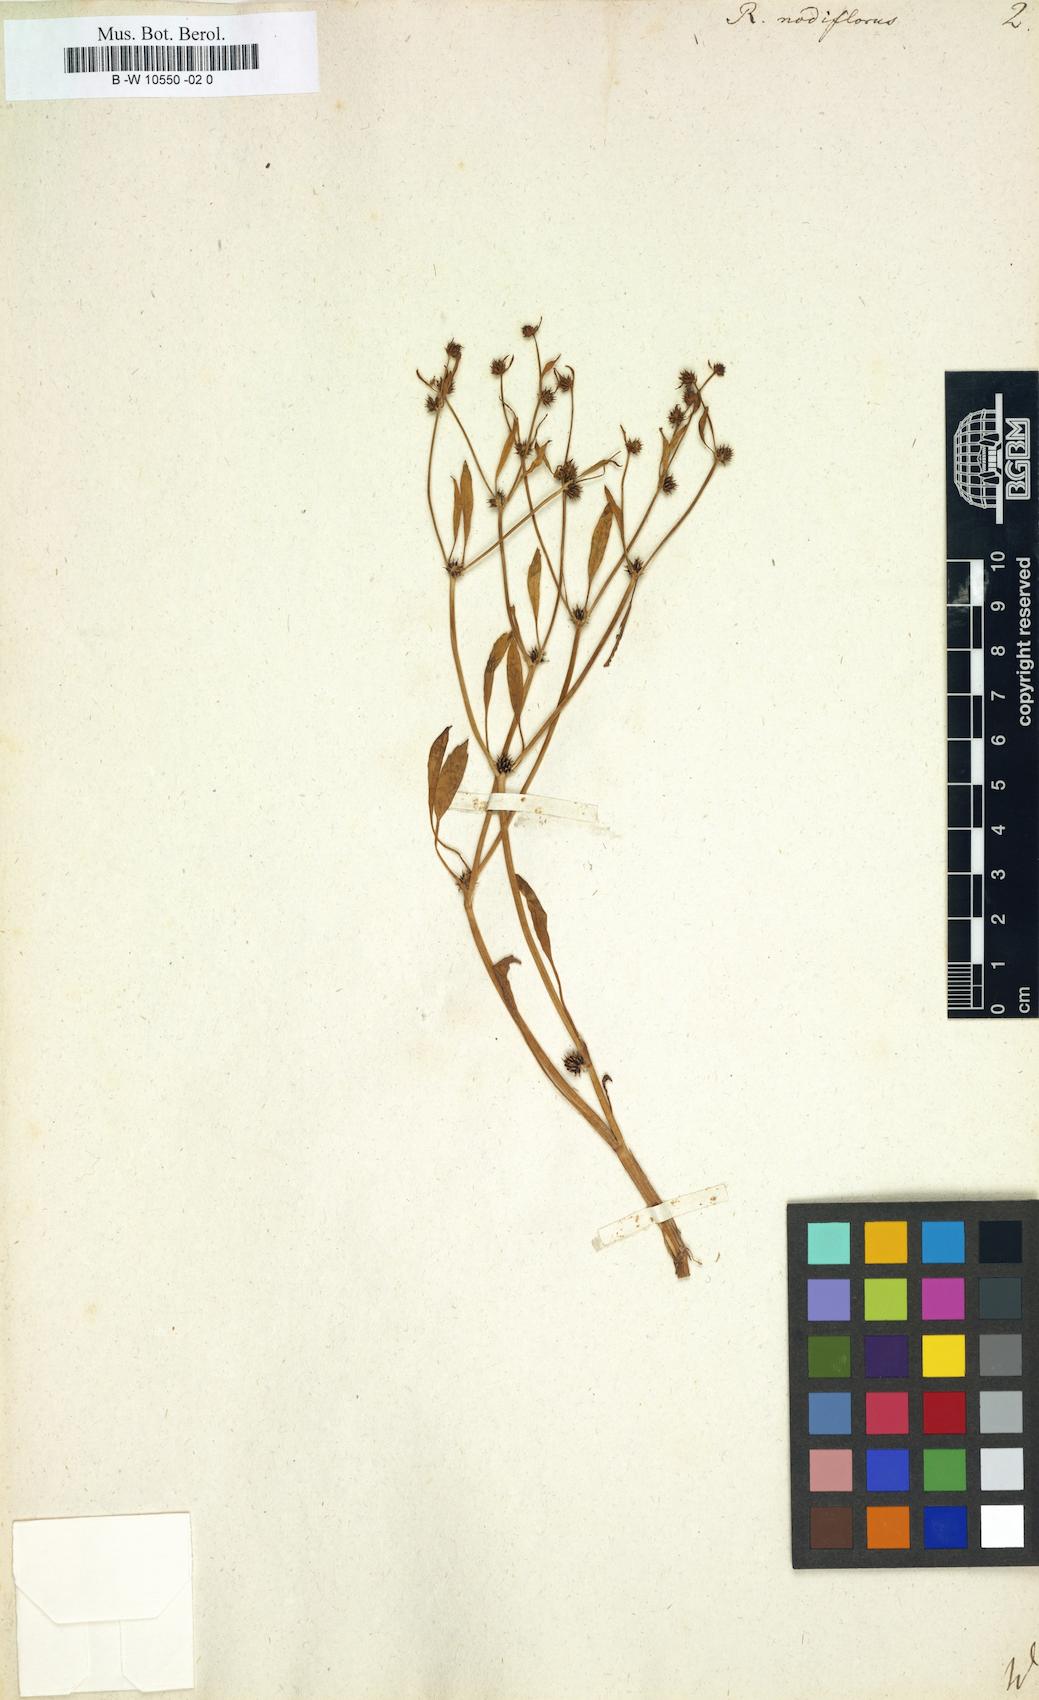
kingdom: Plantae
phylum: Tracheophyta
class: Magnoliopsida
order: Ranunculales
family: Ranunculaceae
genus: Ranunculus
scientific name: Ranunculus nodiflorus
